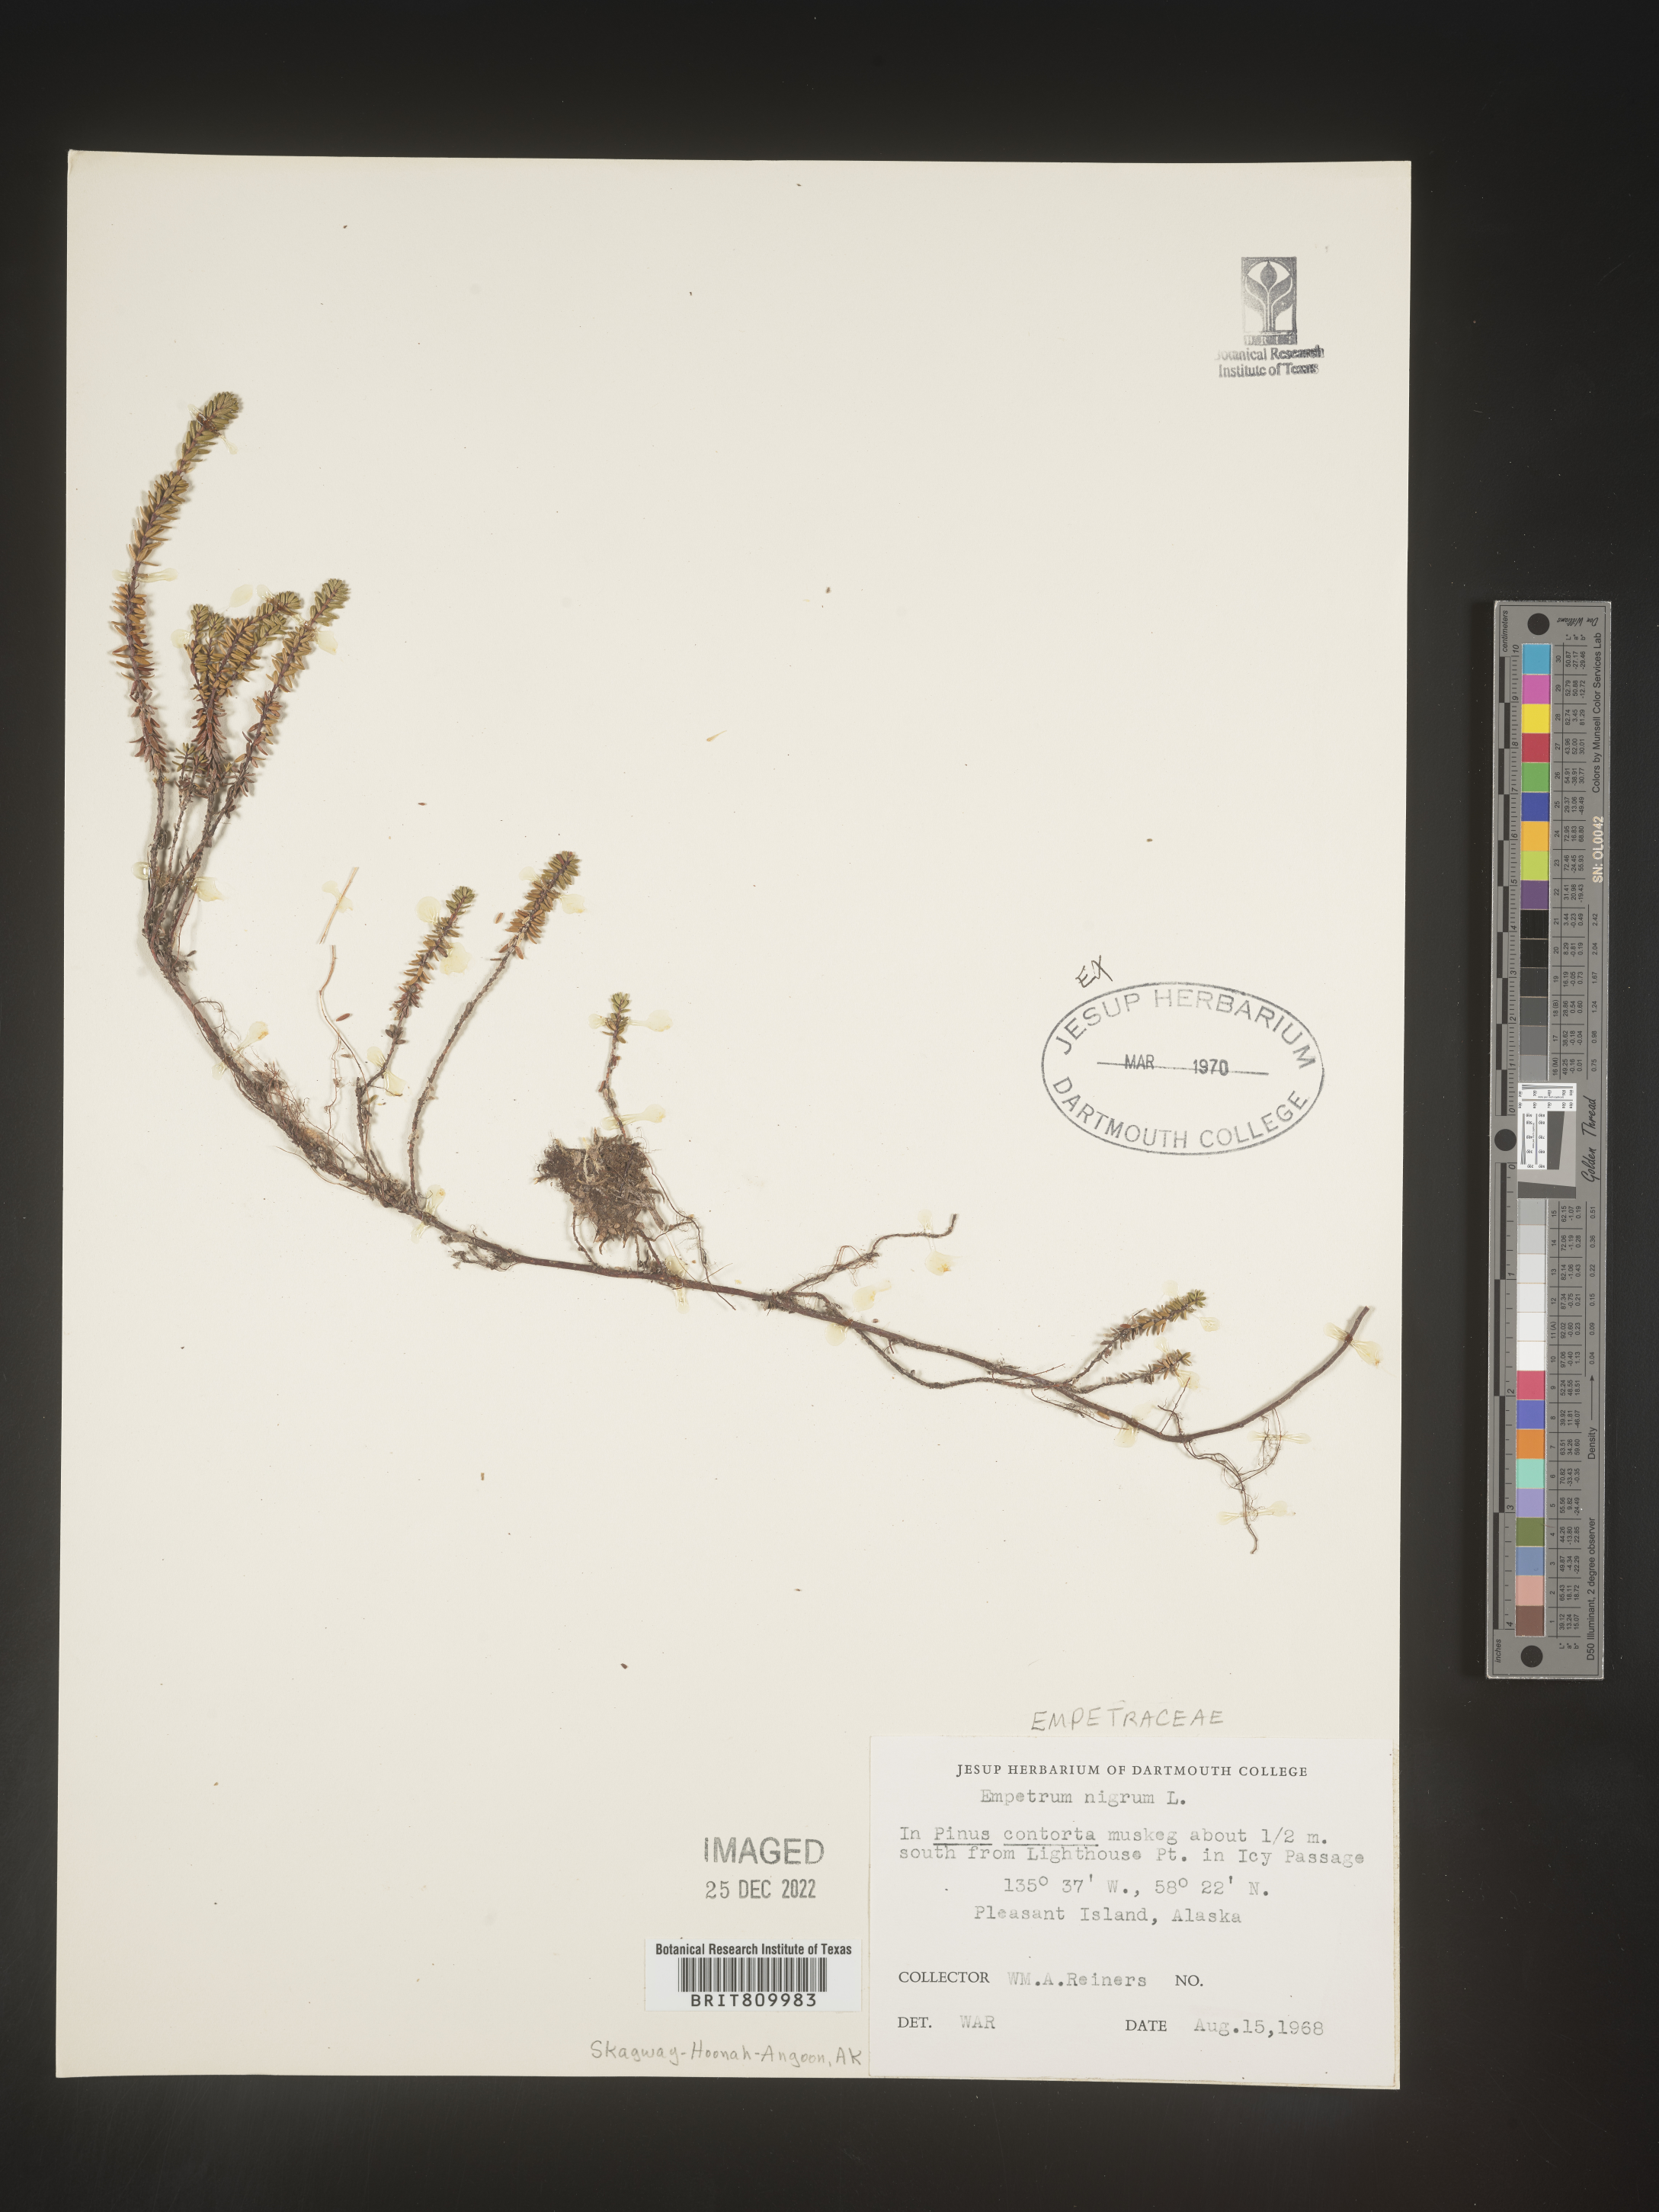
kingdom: Plantae
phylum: Tracheophyta
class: Magnoliopsida
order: Ericales
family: Ericaceae
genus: Empetrum
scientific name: Empetrum
